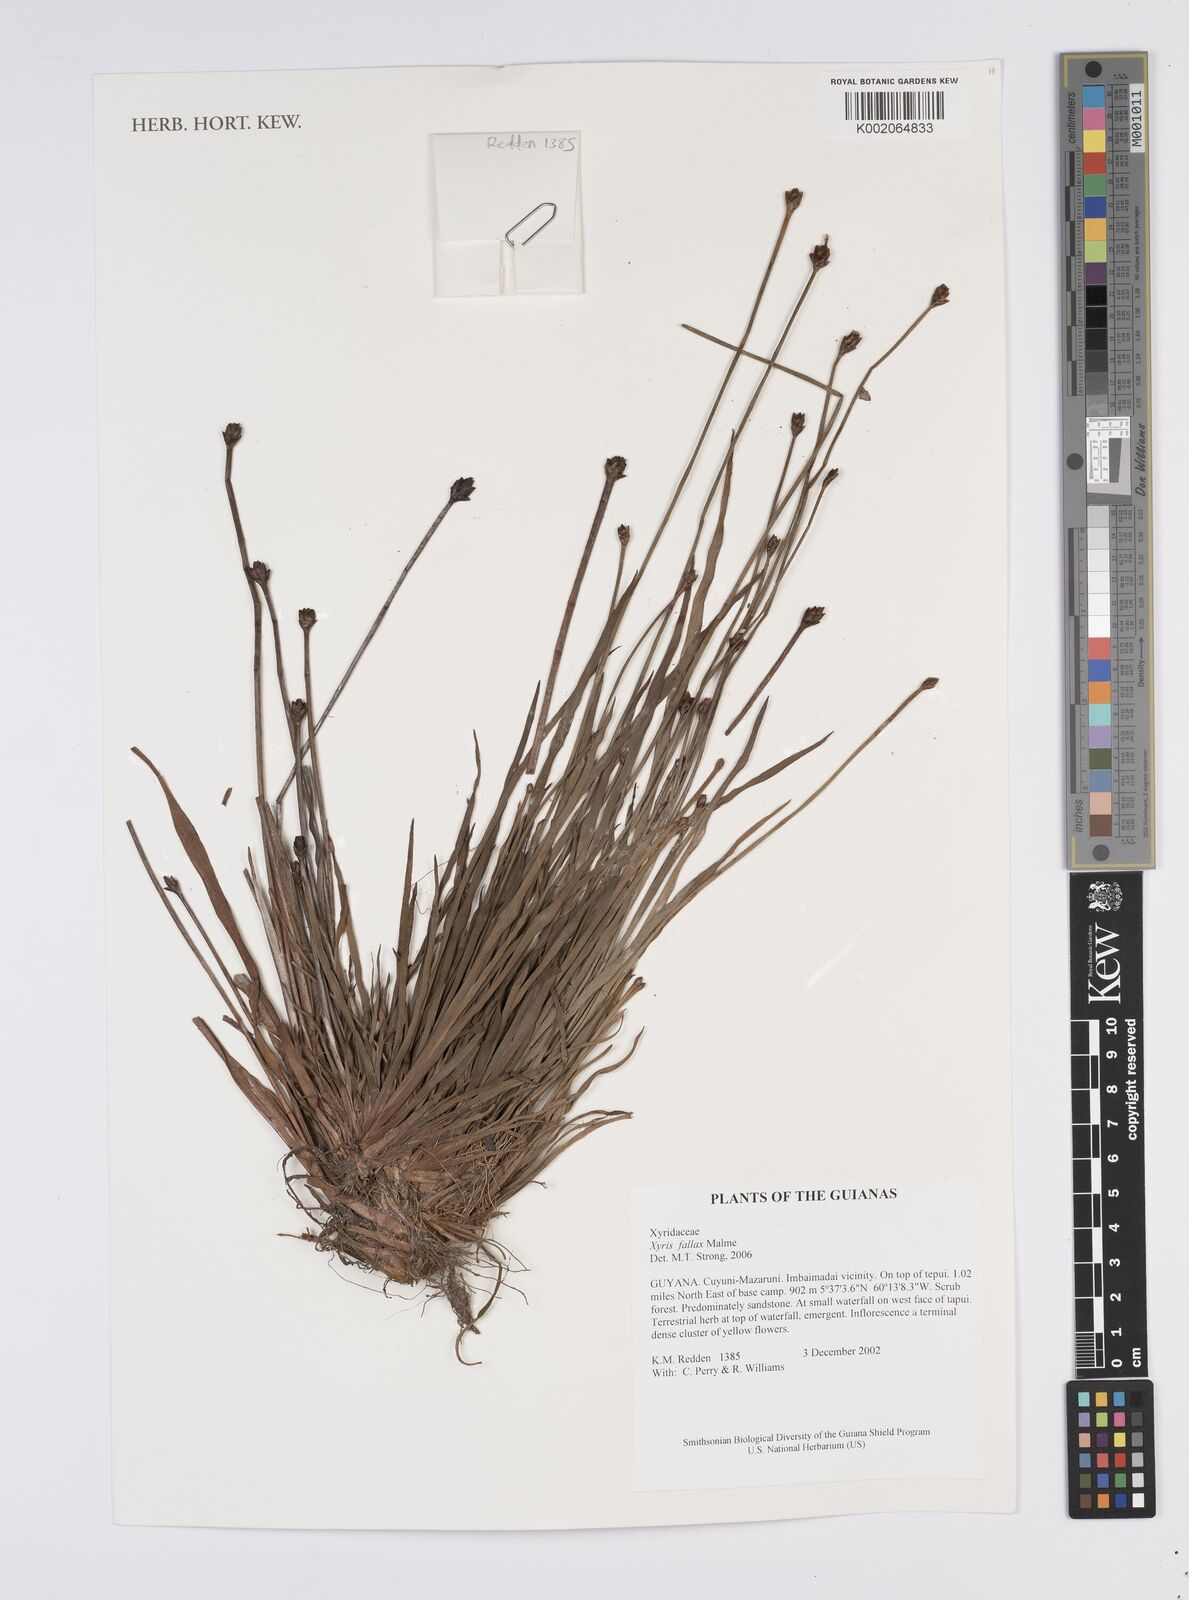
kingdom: Plantae
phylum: Tracheophyta
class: Liliopsida
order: Poales
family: Xyridaceae
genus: Xyris
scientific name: Xyris fallax
